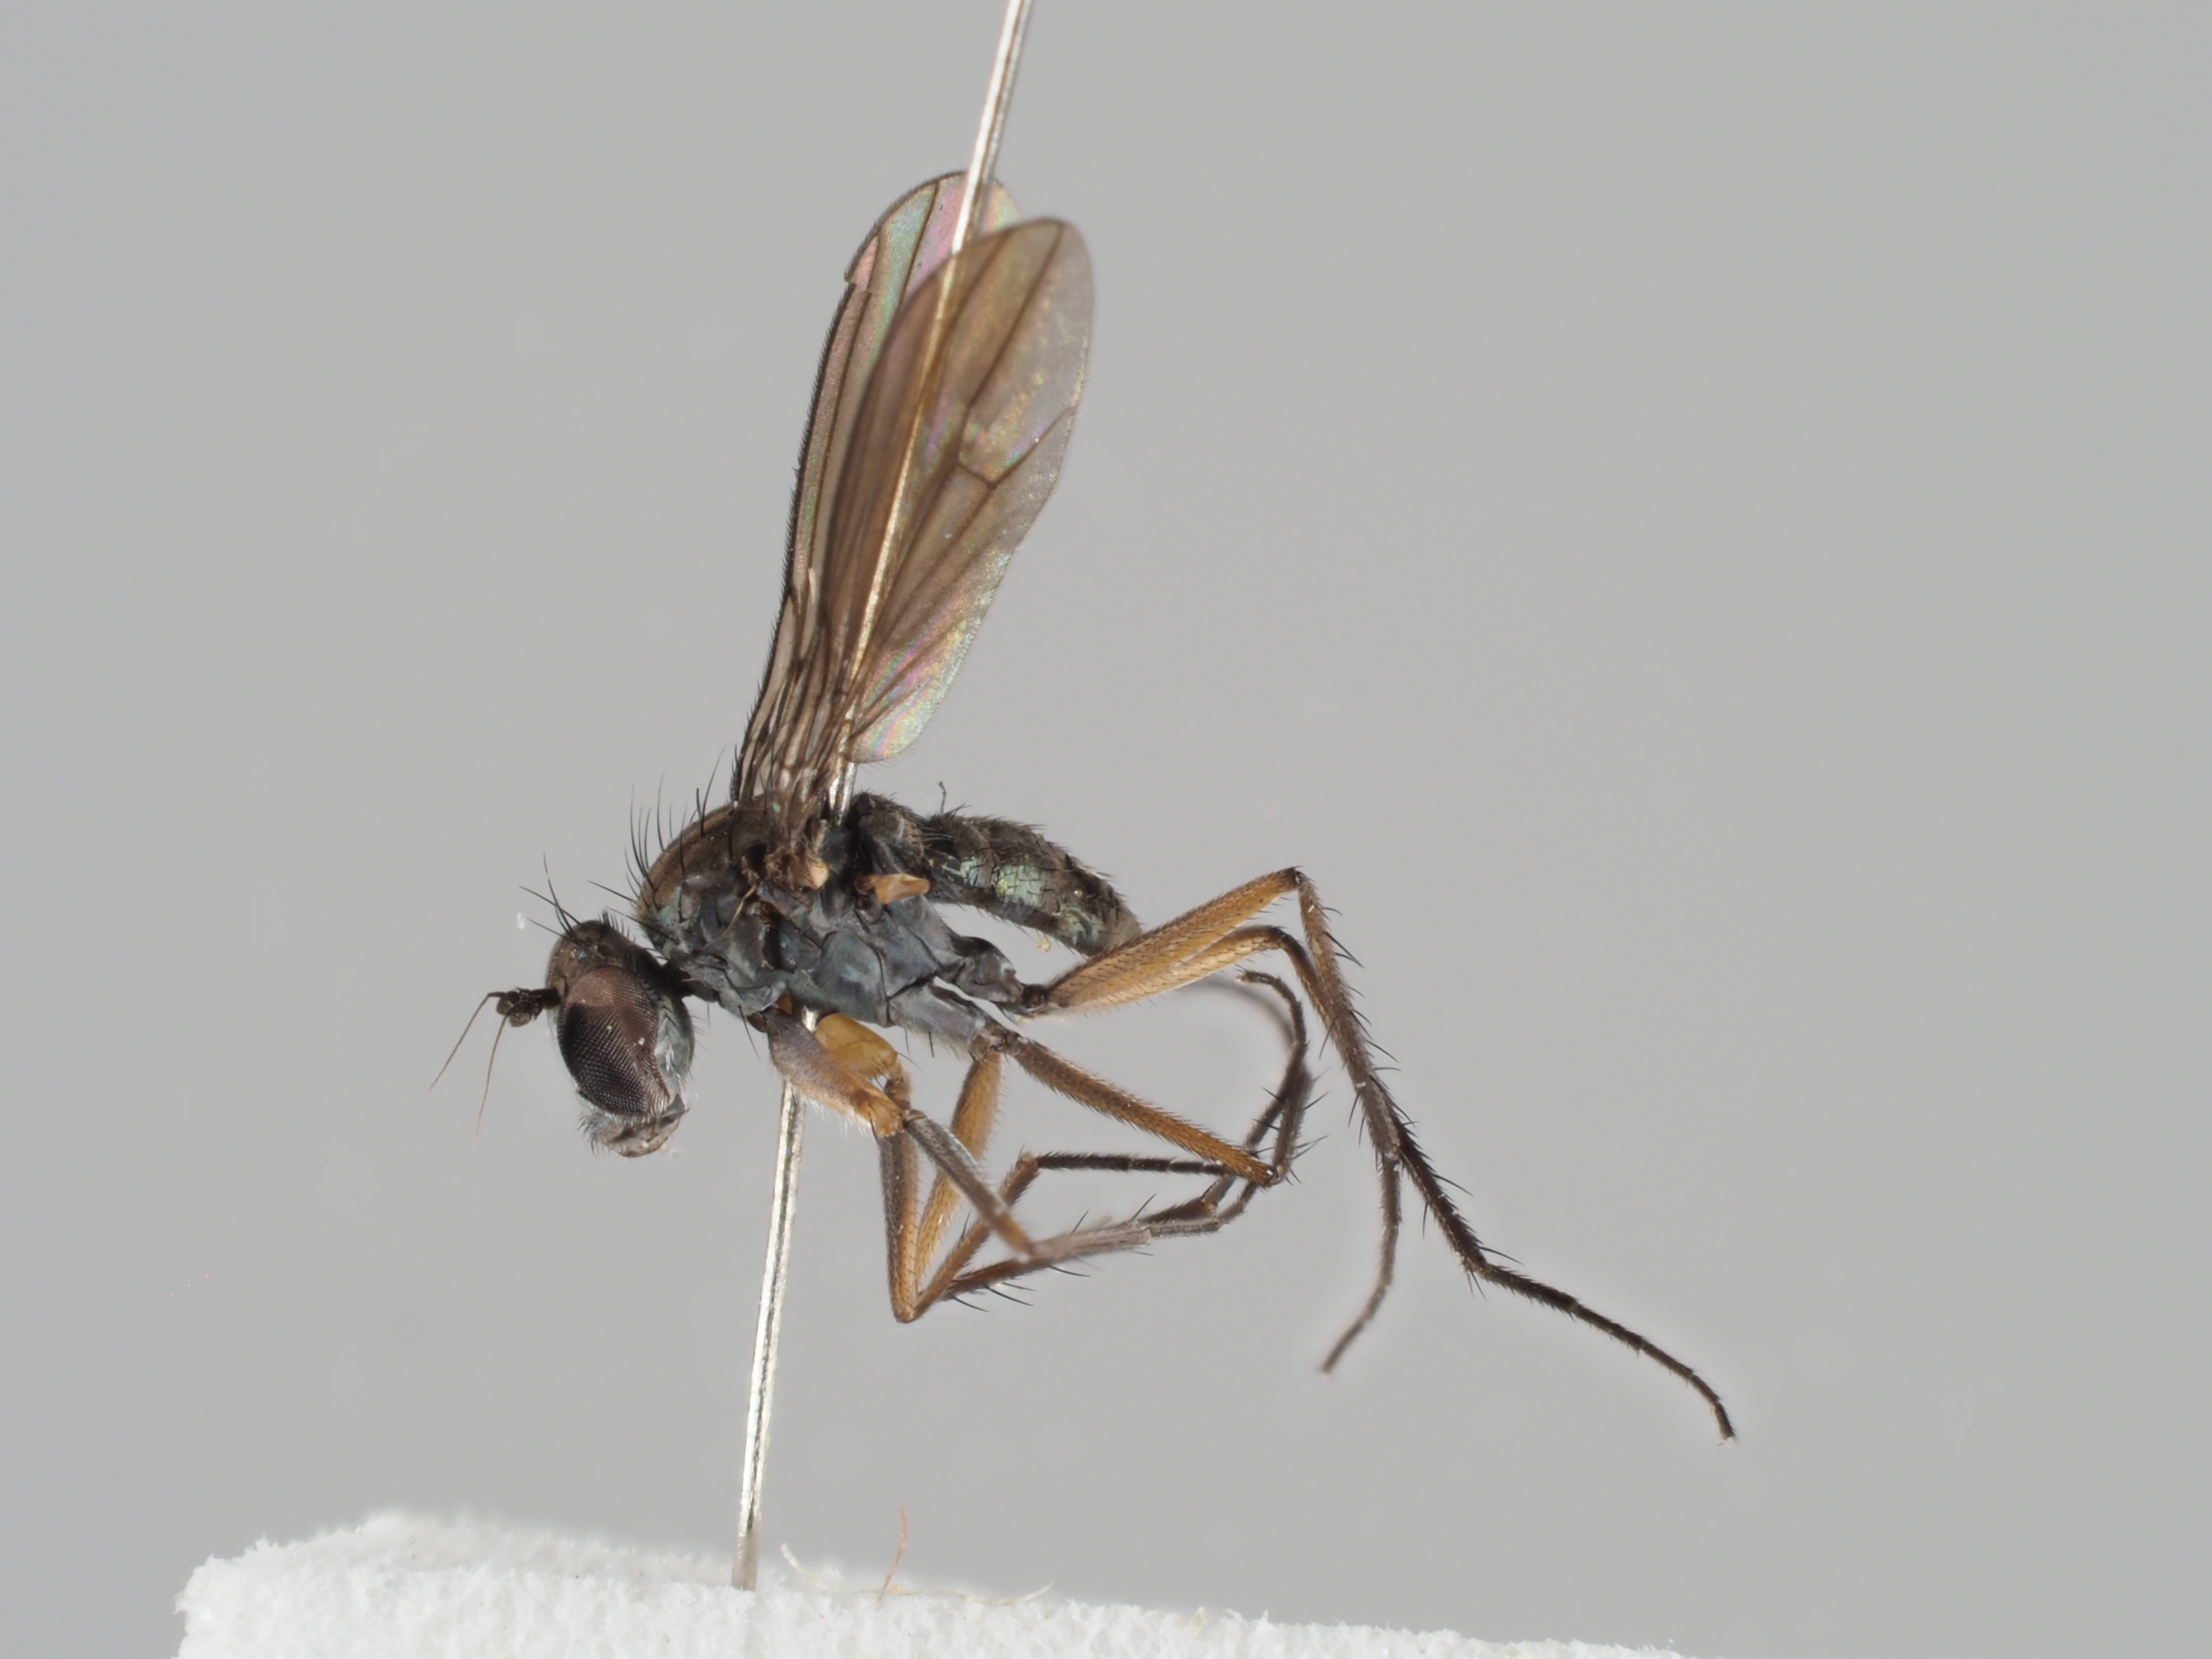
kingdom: Animalia
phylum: Arthropoda
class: Insecta
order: Diptera
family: Dolichopodidae
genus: Campsicnemus
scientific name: Campsicnemus compeditus
